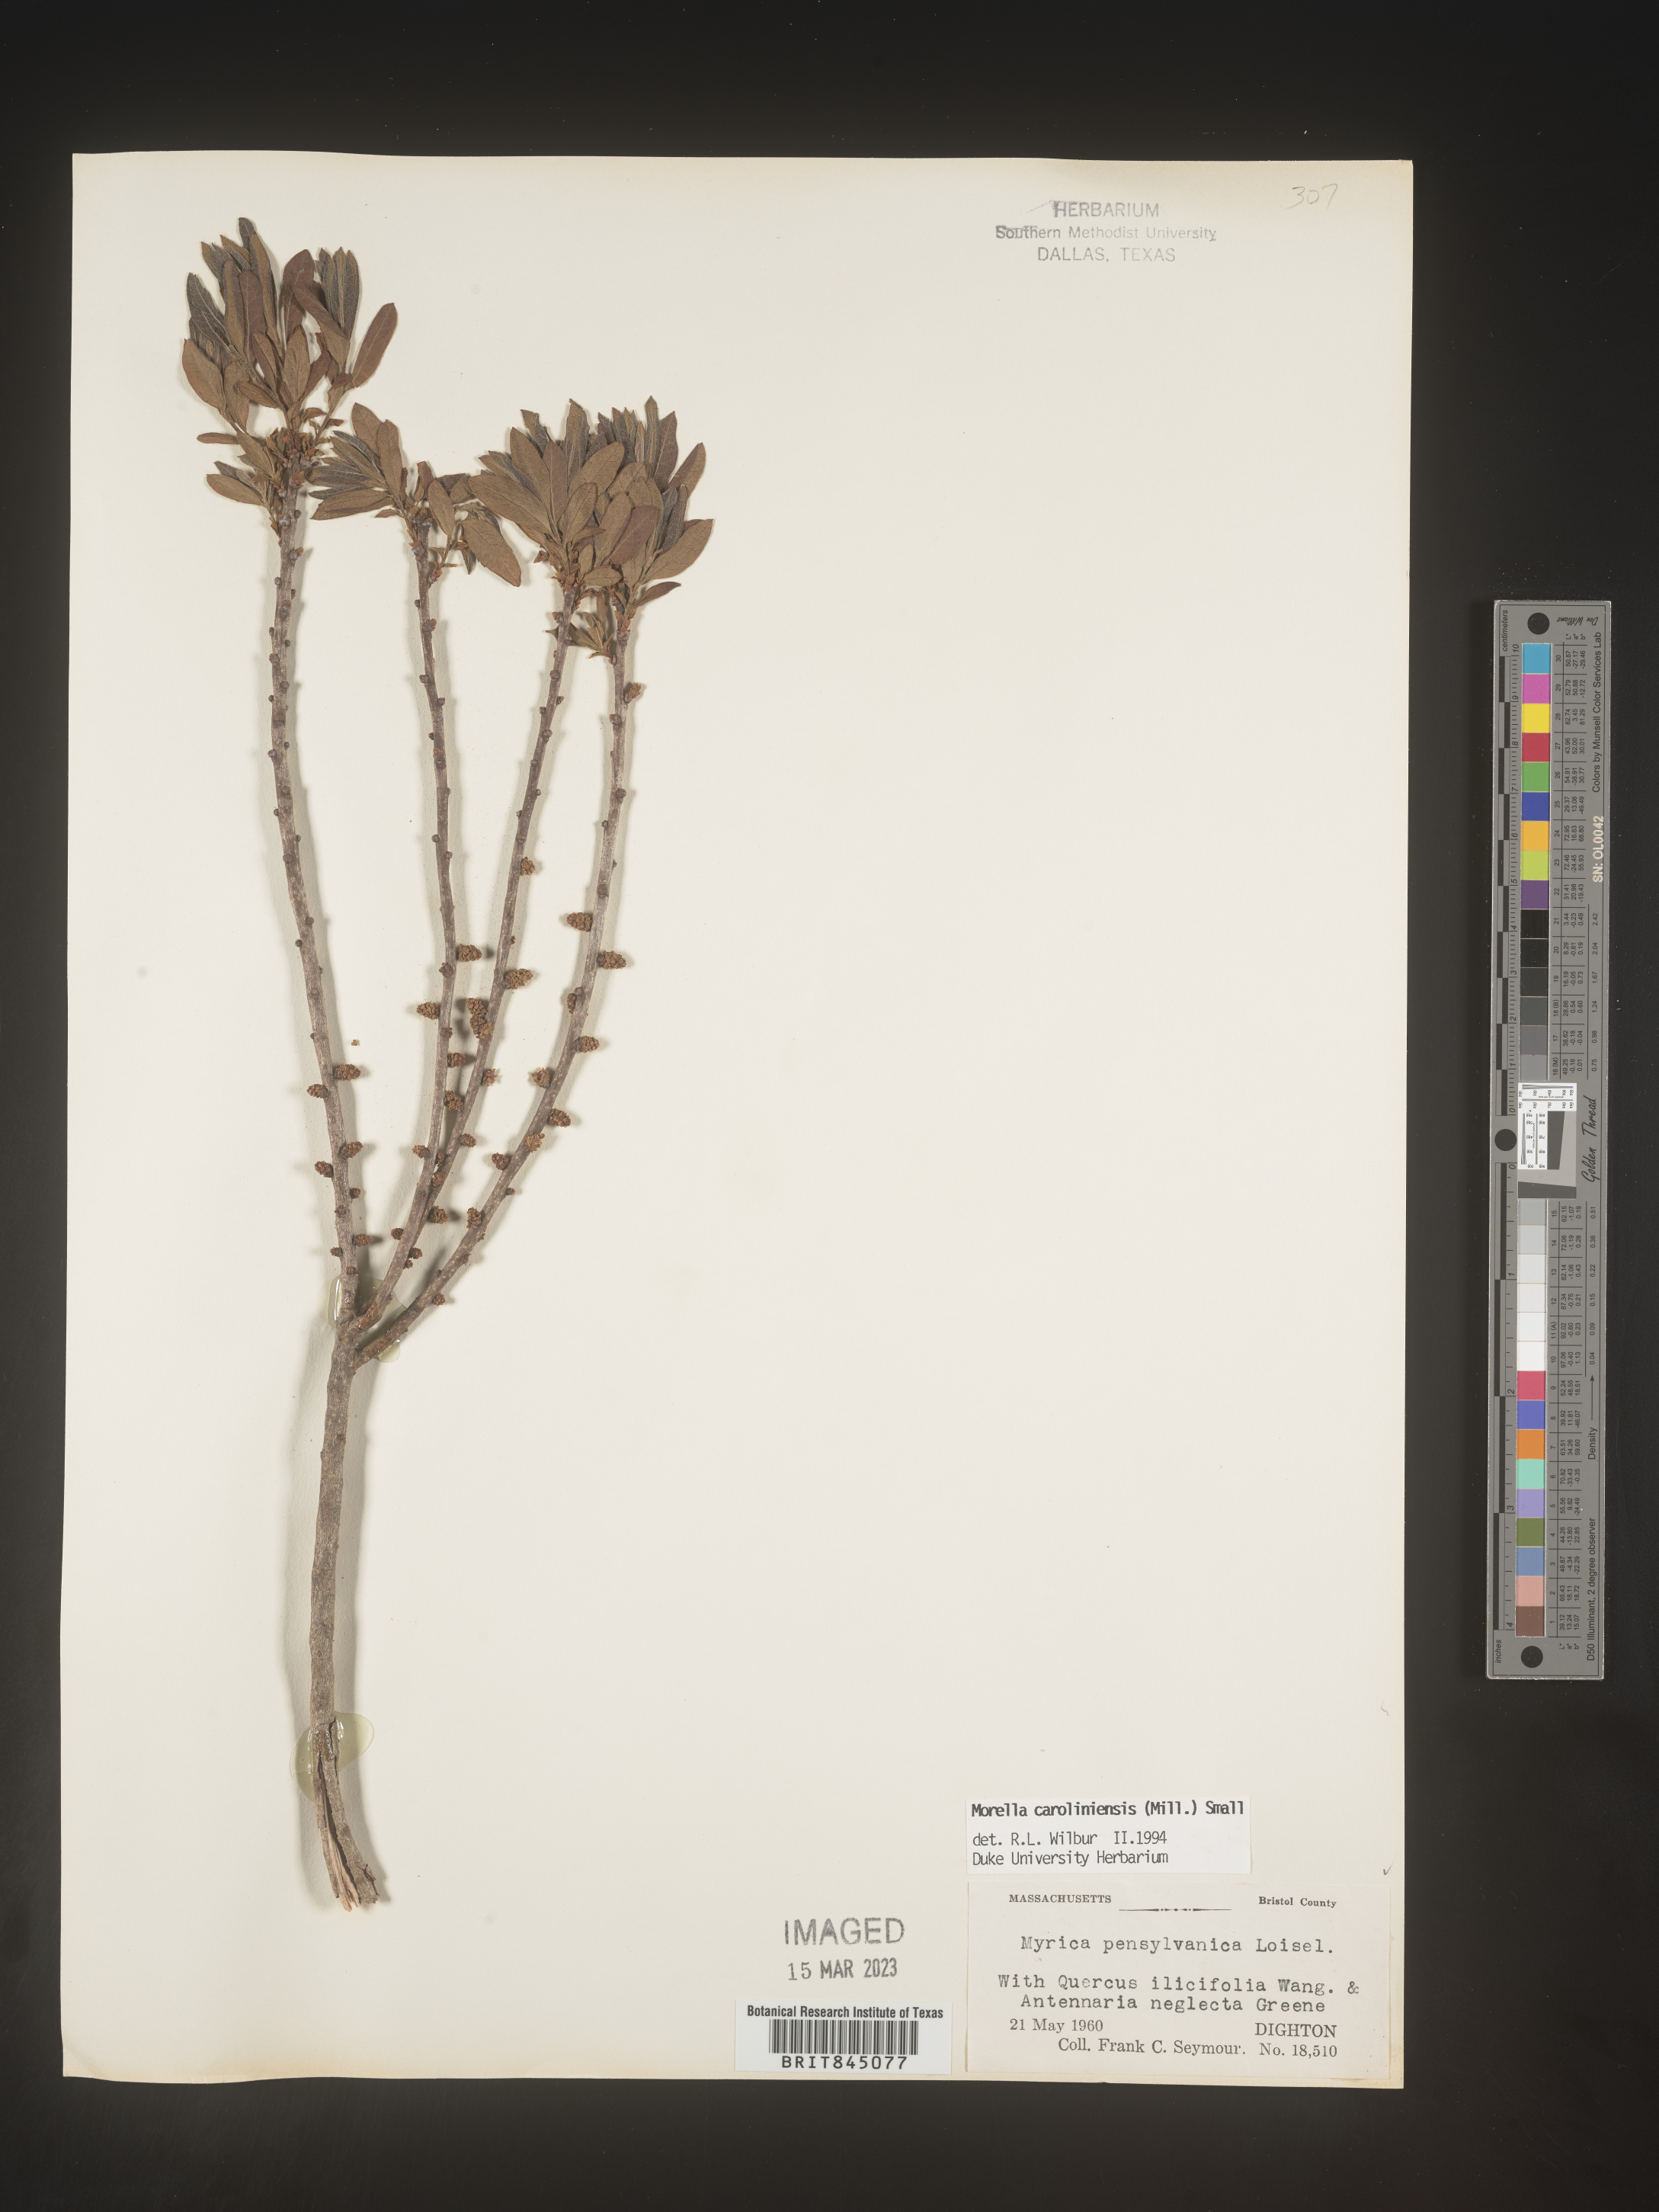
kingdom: Plantae
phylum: Tracheophyta
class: Magnoliopsida
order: Fagales
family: Myricaceae
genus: Morella
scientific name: Morella caroliniensis
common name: Evergreen bayberry
